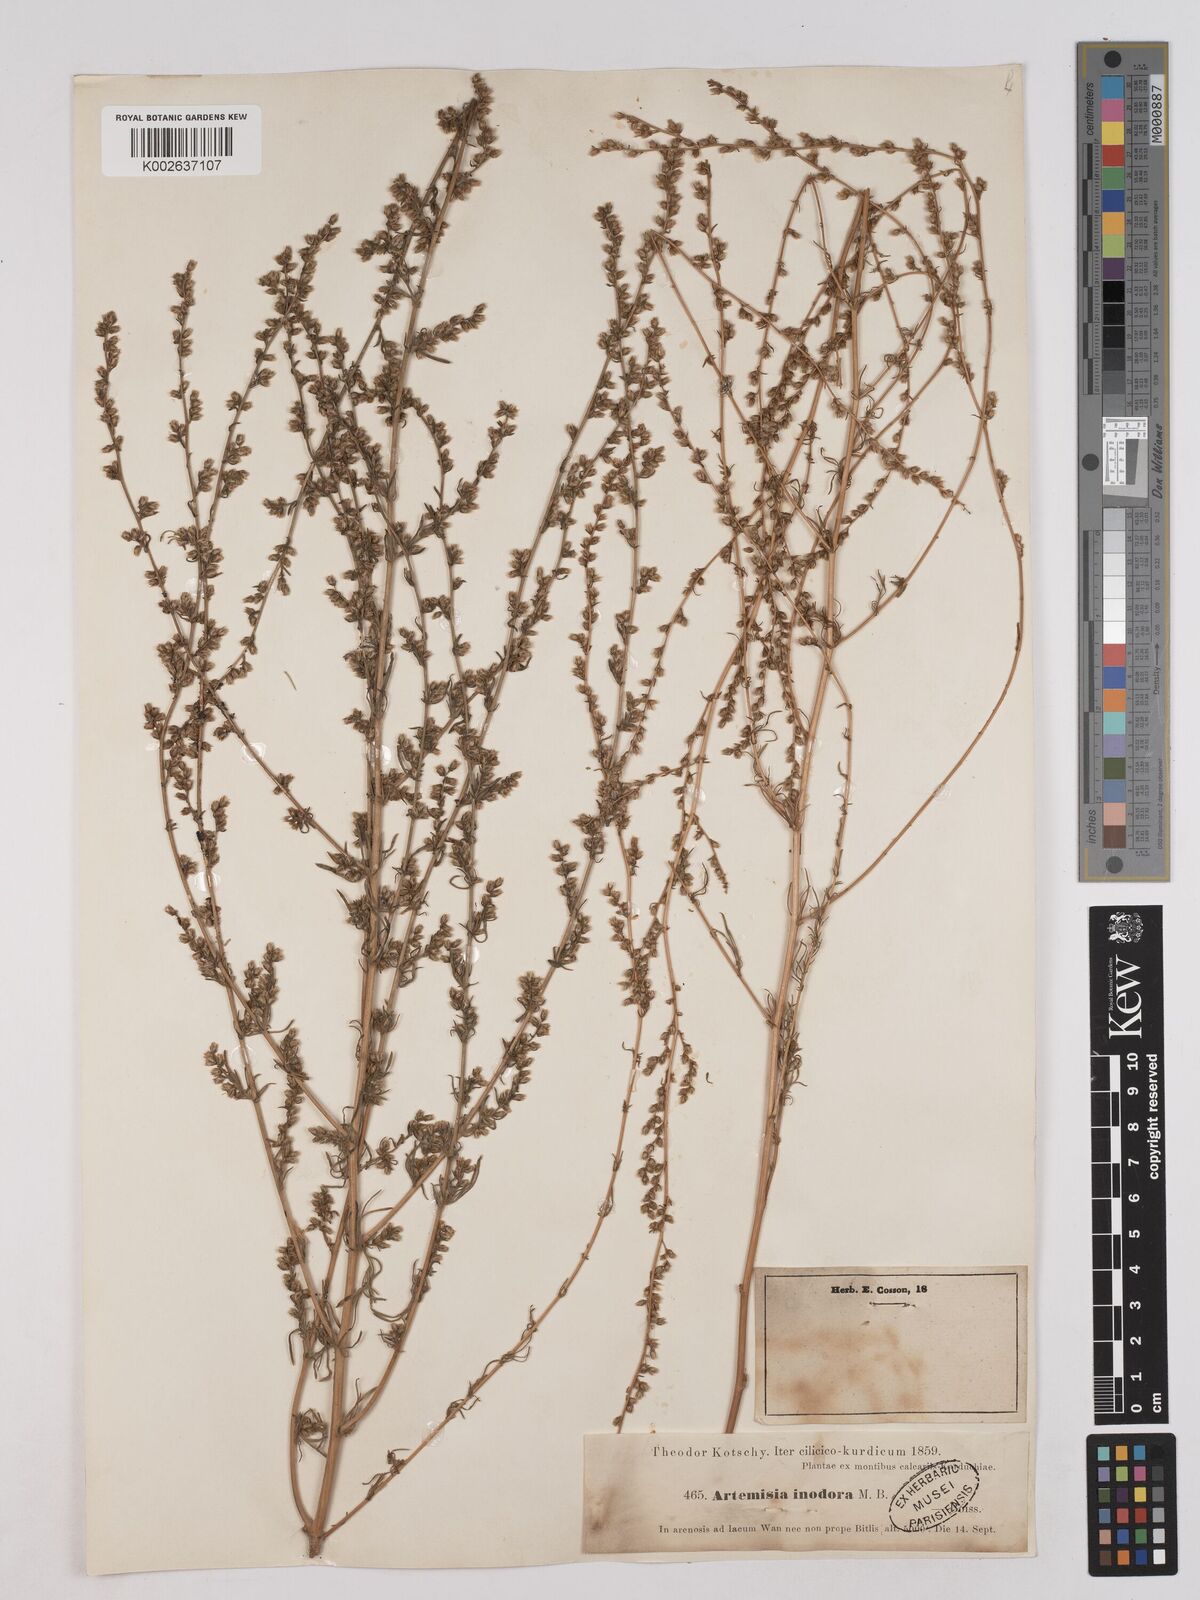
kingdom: Plantae
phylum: Tracheophyta
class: Magnoliopsida
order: Asterales
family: Asteraceae
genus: Artemisia
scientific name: Artemisia marschalliana
